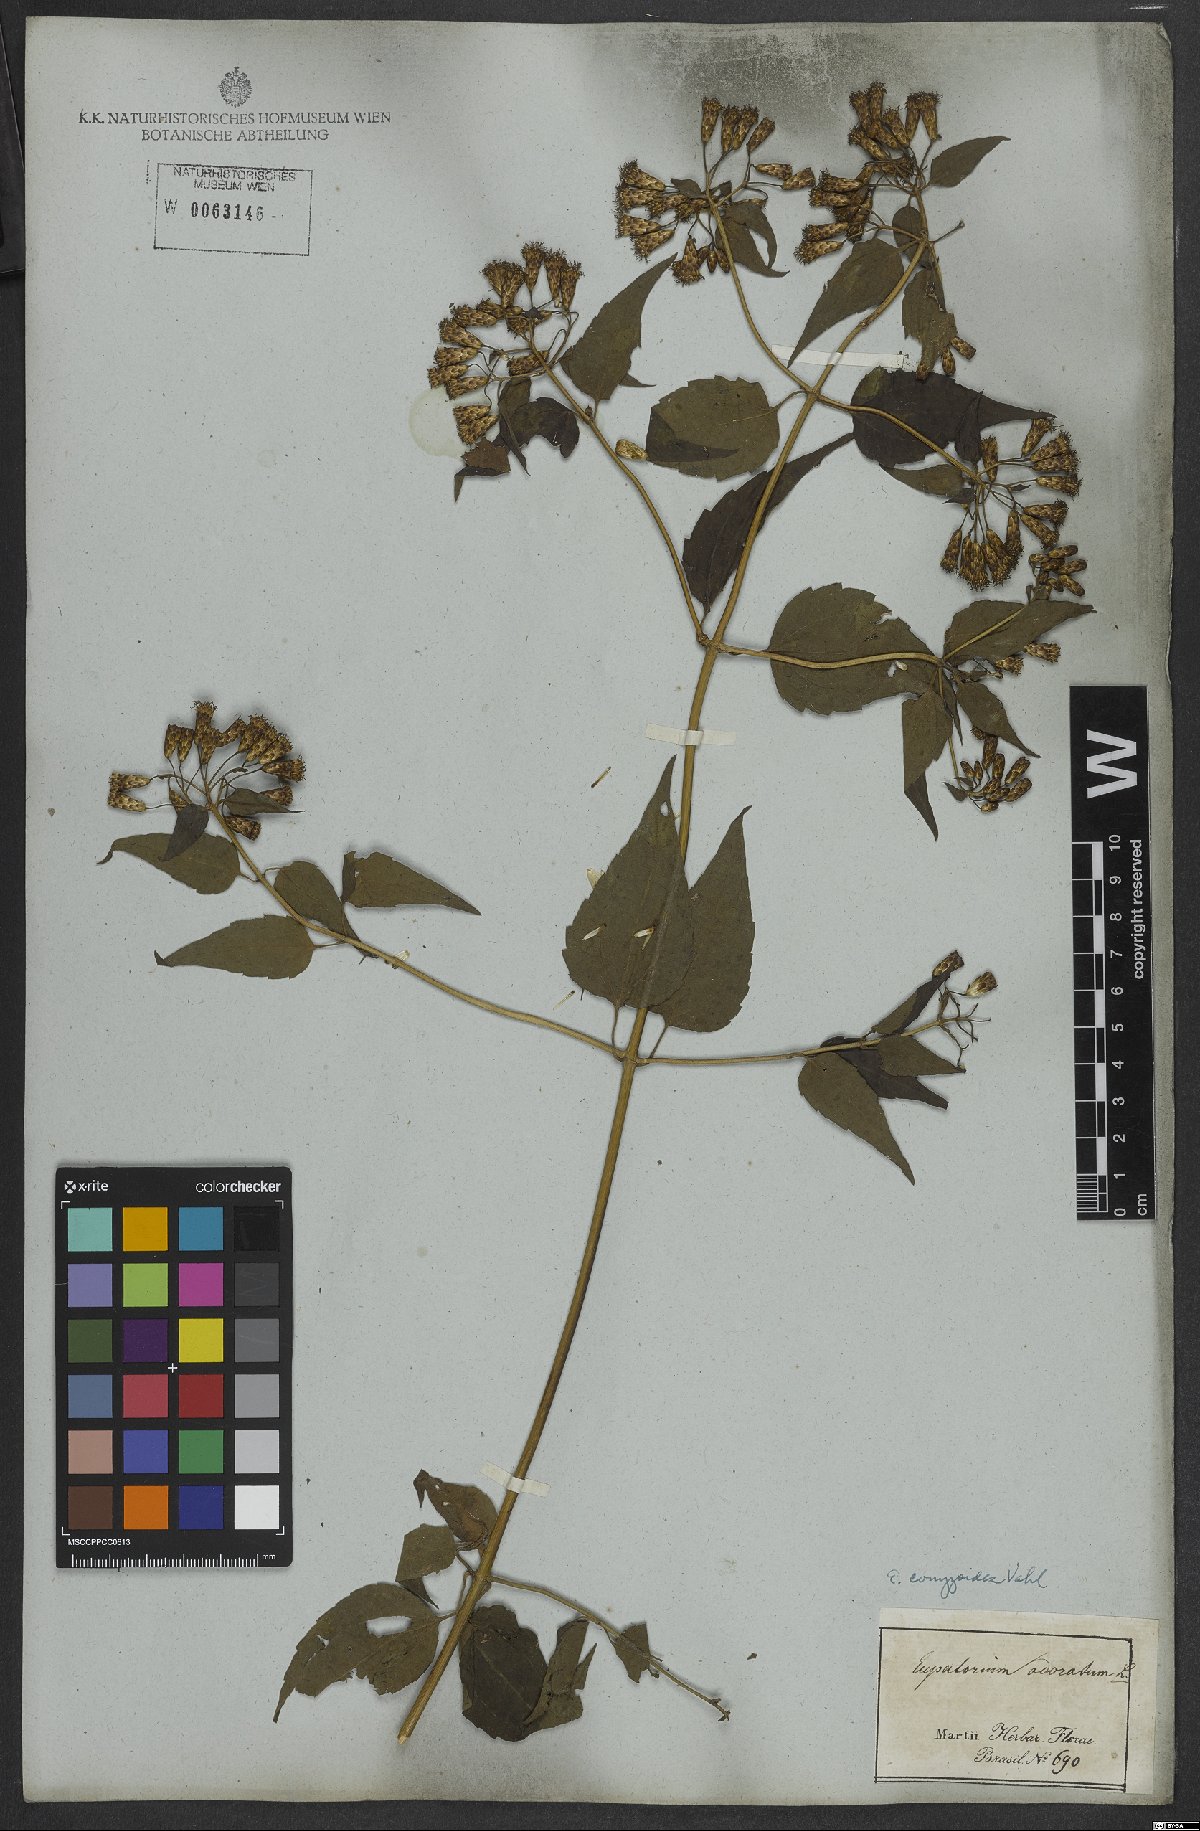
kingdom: Plantae
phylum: Tracheophyta
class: Magnoliopsida
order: Asterales
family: Asteraceae
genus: Chromolaena
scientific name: Chromolaena odorata
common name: Siamweed
